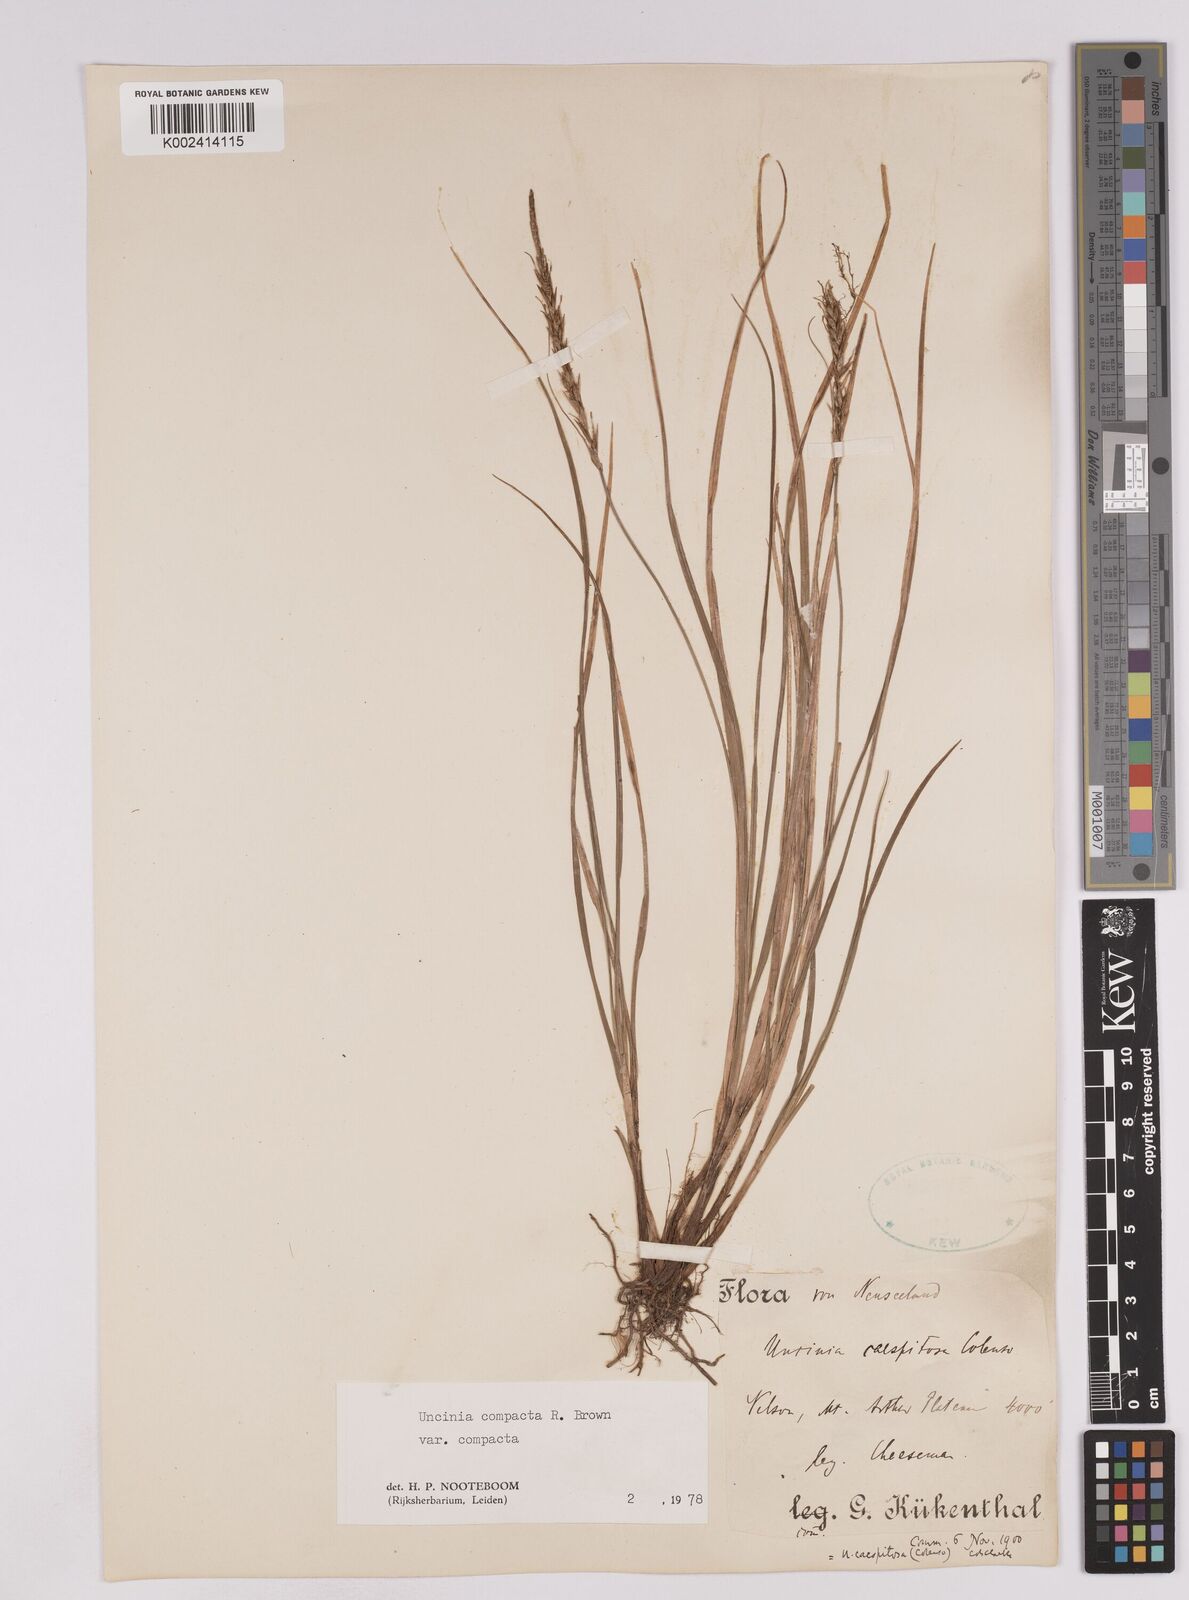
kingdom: Plantae
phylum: Tracheophyta
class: Liliopsida
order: Poales
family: Cyperaceae
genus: Carex
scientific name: Carex austrocompacta
